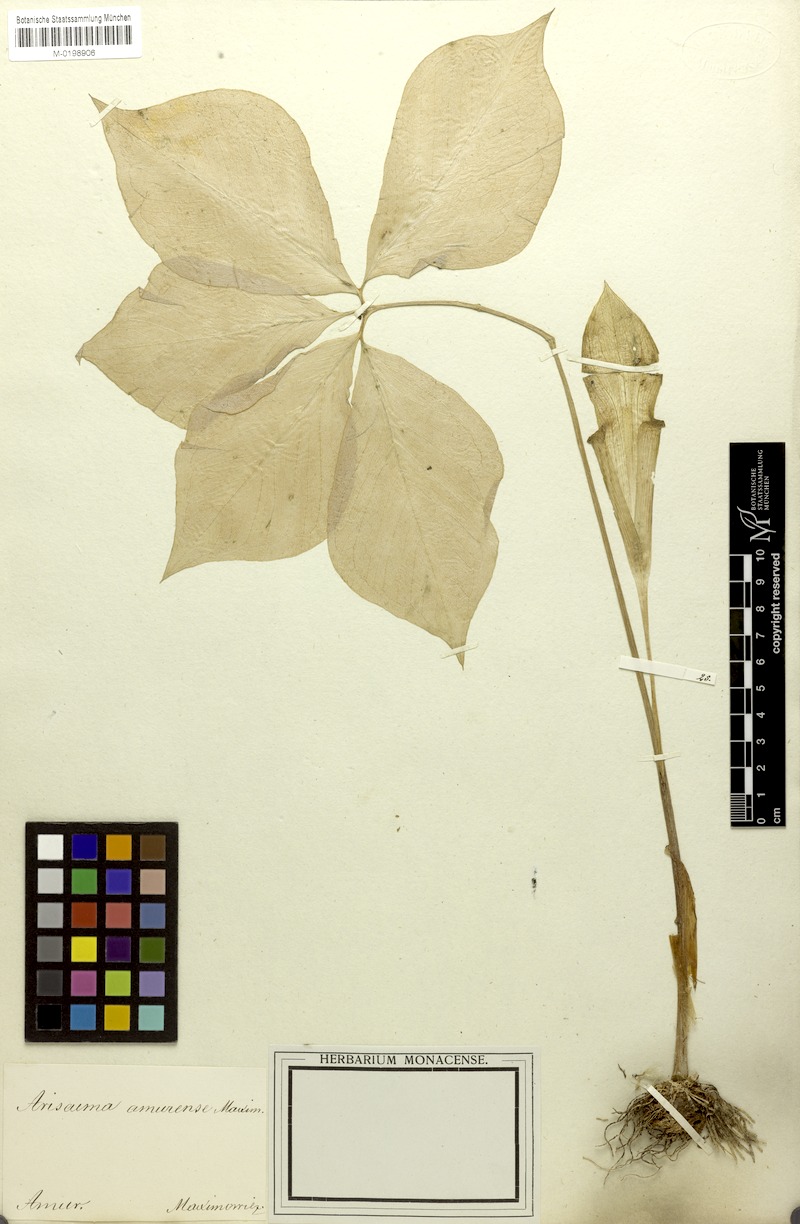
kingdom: Plantae
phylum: Tracheophyta
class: Liliopsida
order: Alismatales
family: Araceae
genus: Arisaema
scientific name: Arisaema amurense
